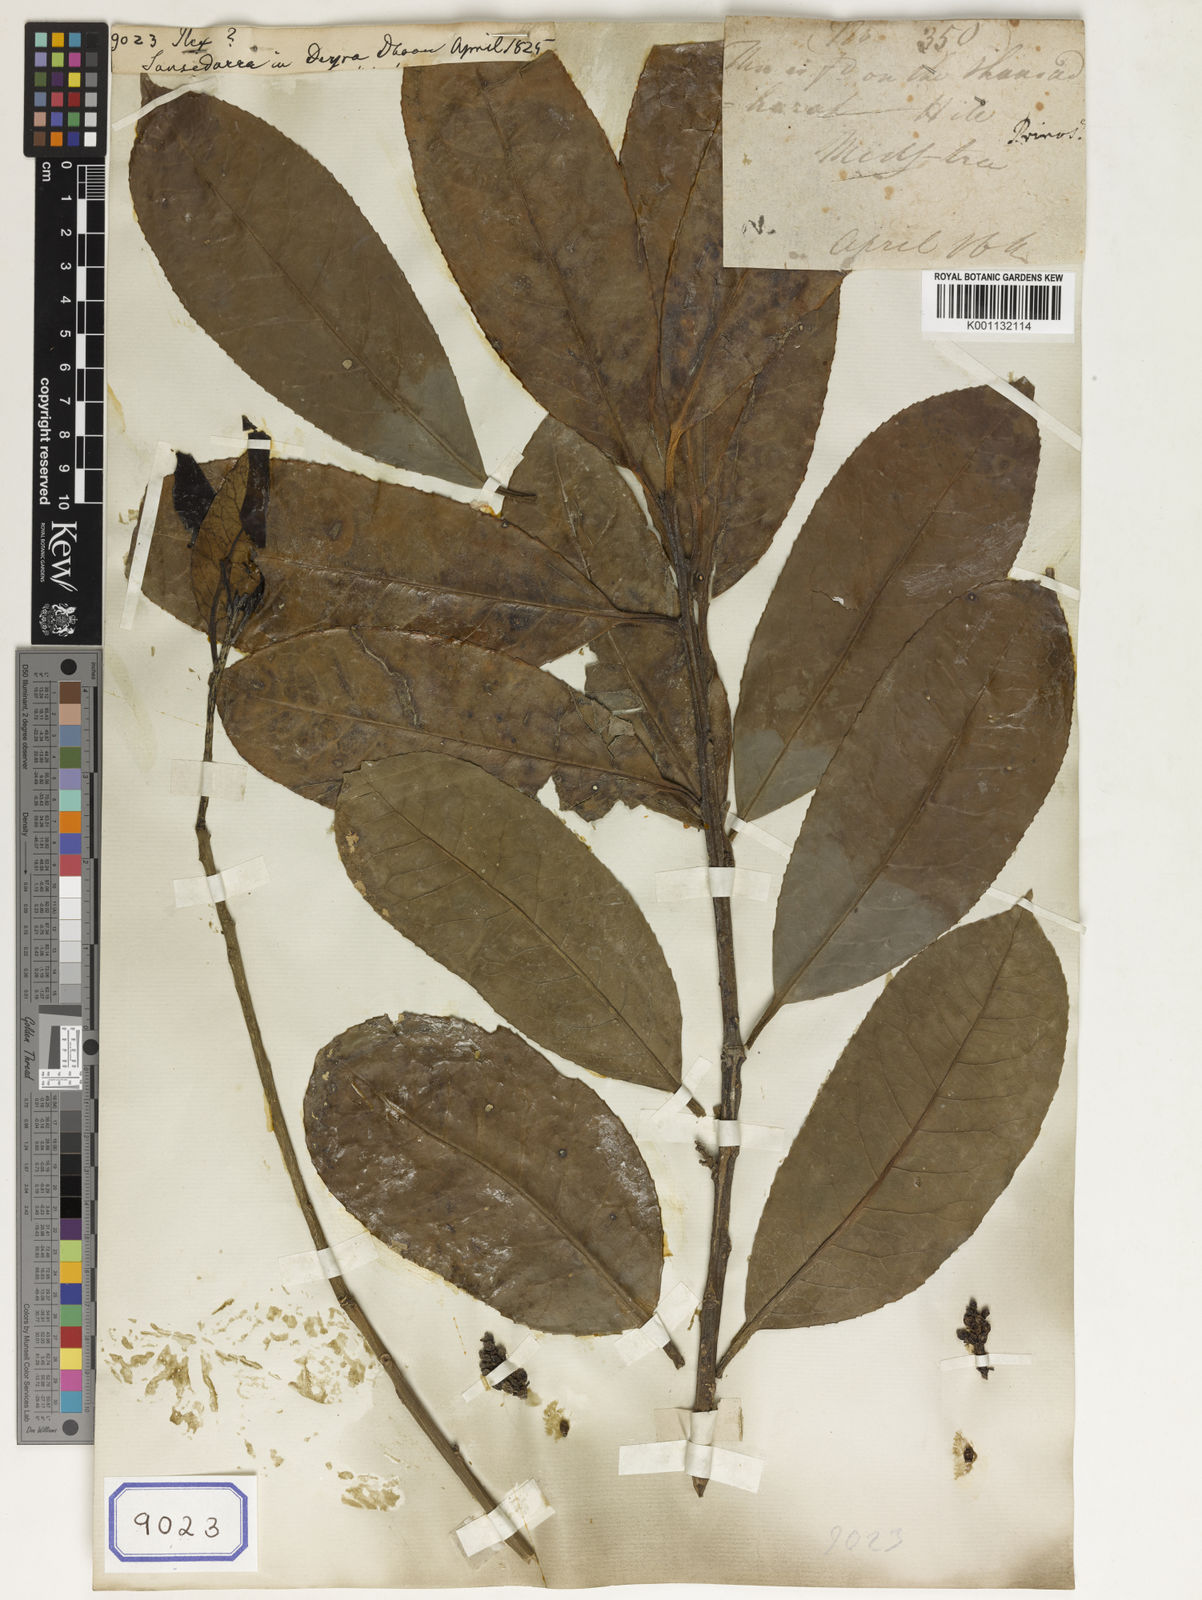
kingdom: Plantae
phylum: Tracheophyta
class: Magnoliopsida
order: Aquifoliales
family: Aquifoliaceae
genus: Ilex
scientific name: Ilex
